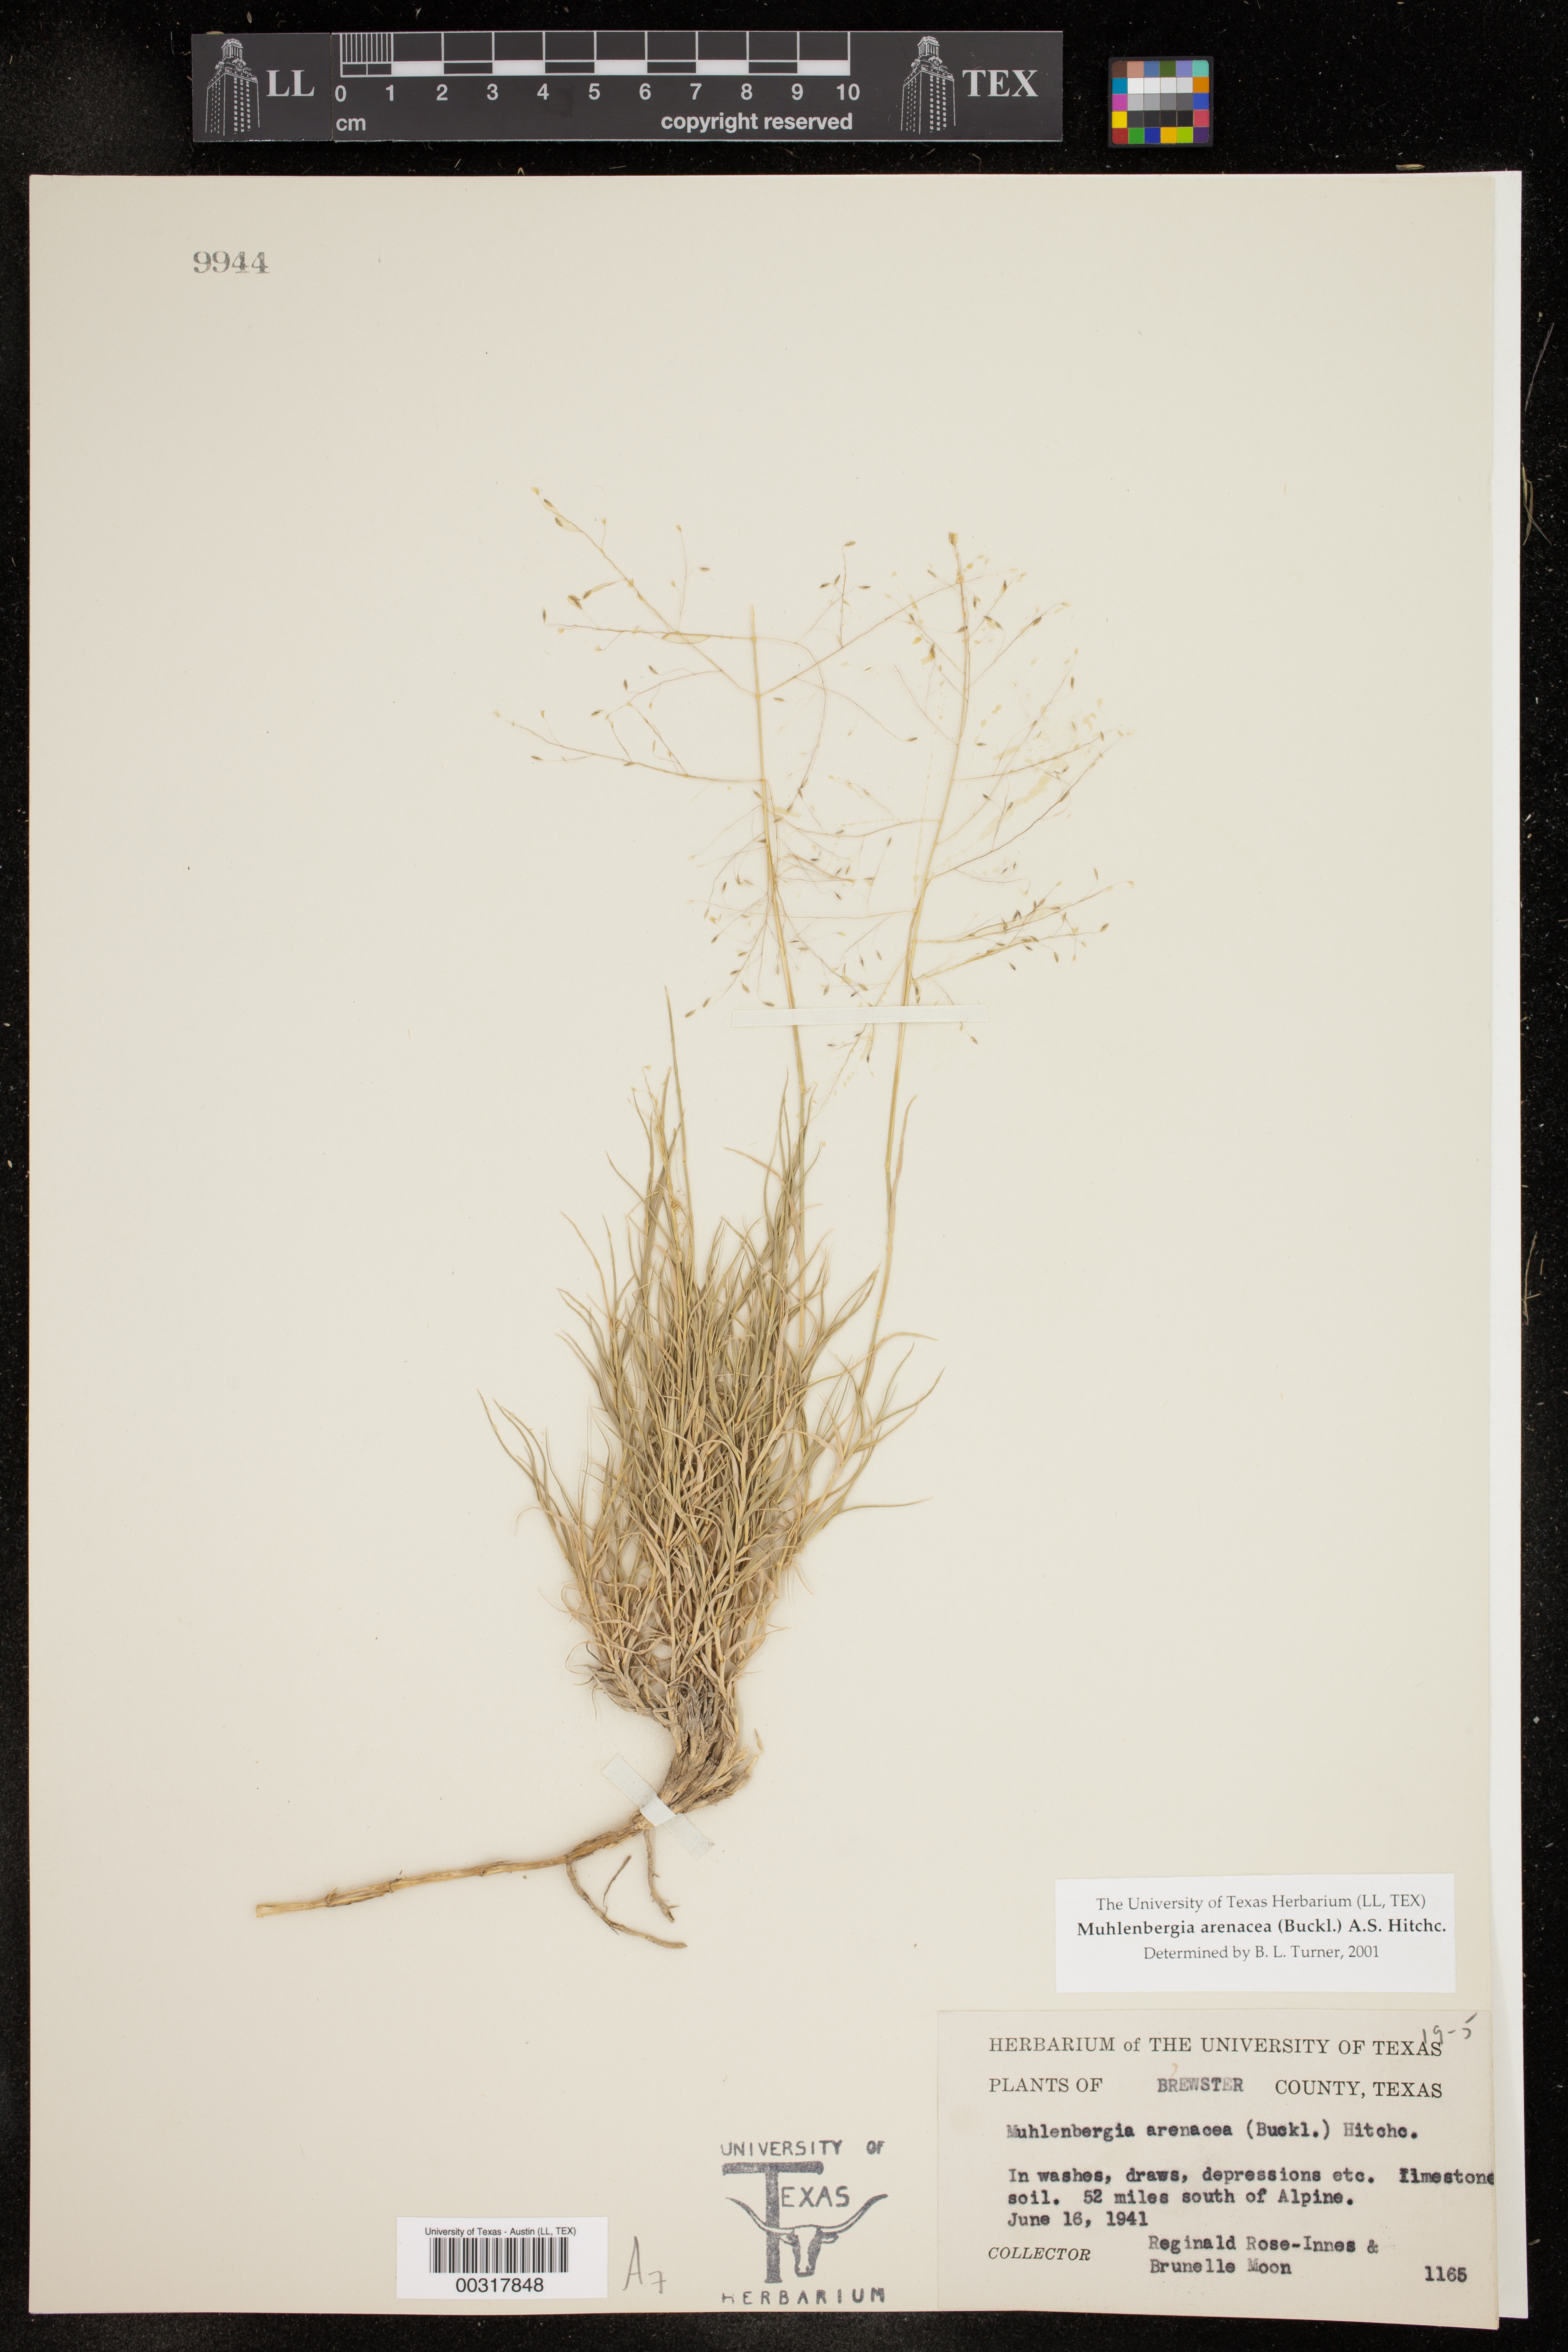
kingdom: Plantae
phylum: Tracheophyta
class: Liliopsida
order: Poales
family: Poaceae
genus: Muhlenbergia
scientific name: Muhlenbergia arenacea
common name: Ear muhly
